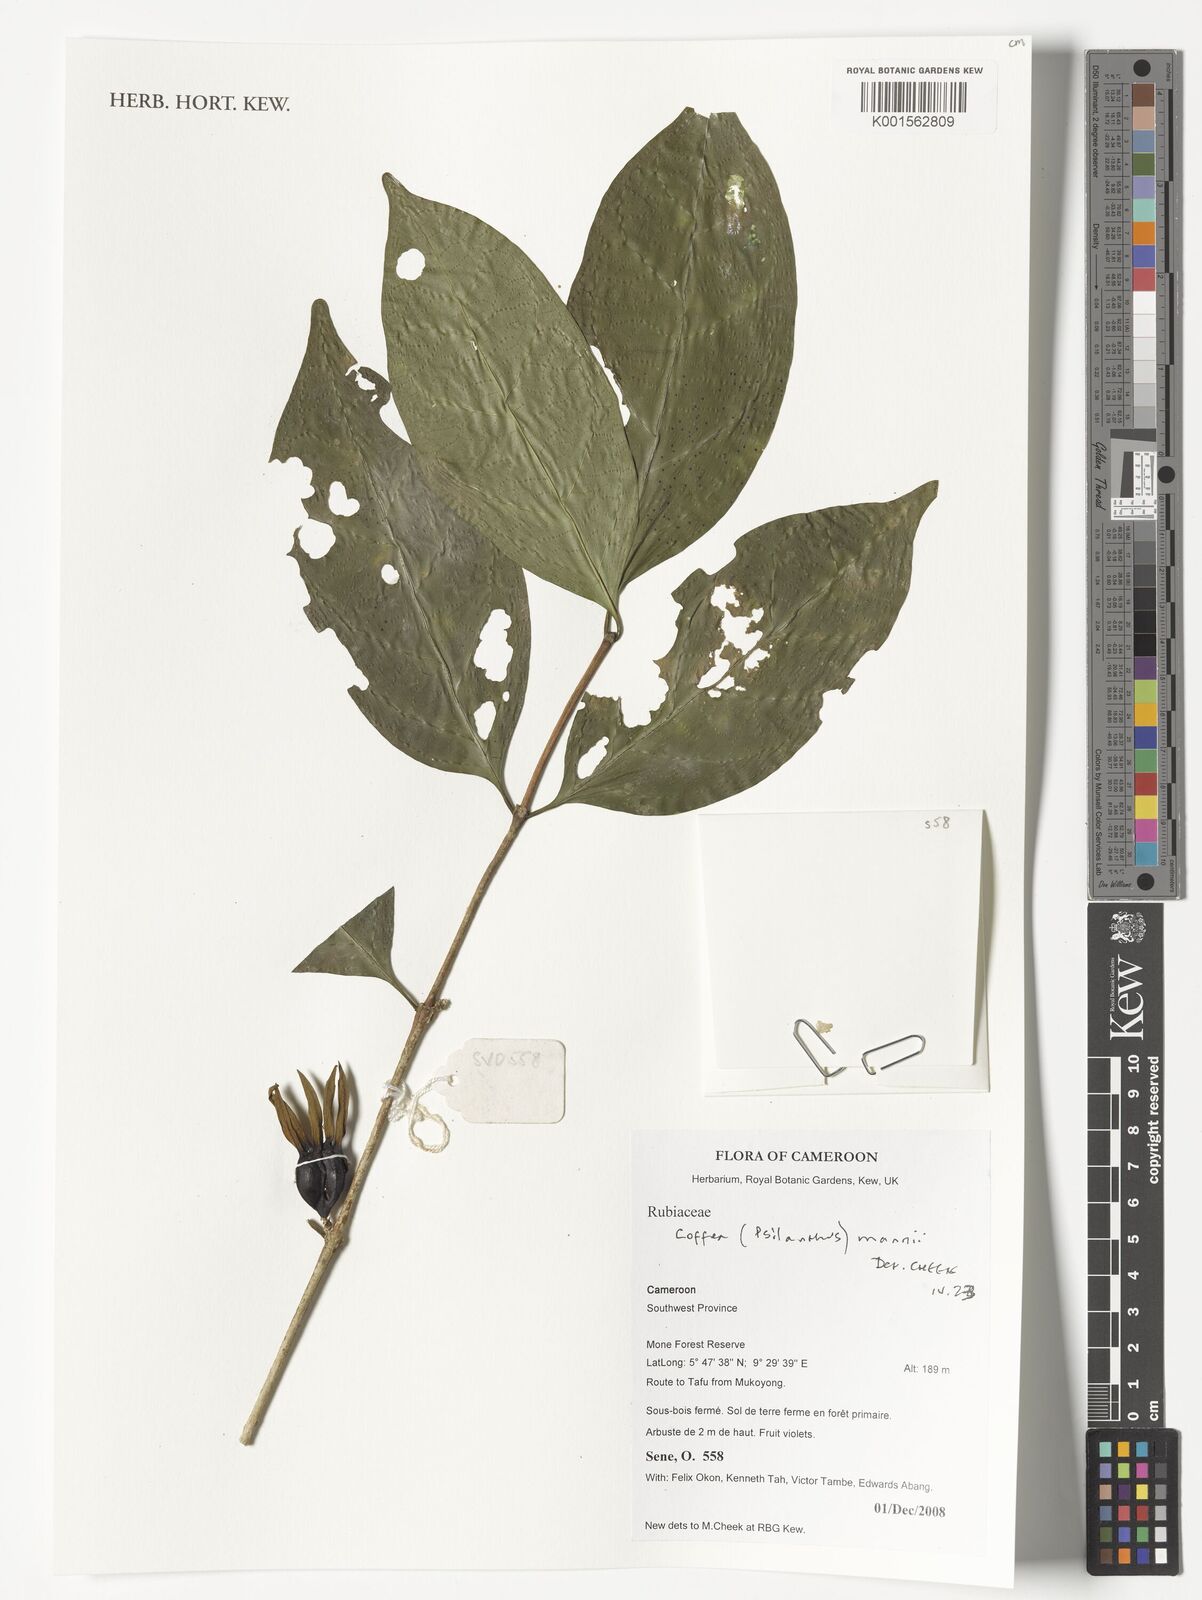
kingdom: Plantae
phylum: Tracheophyta
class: Magnoliopsida
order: Gentianales
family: Rubiaceae
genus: Coffea
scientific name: Coffea mannii
